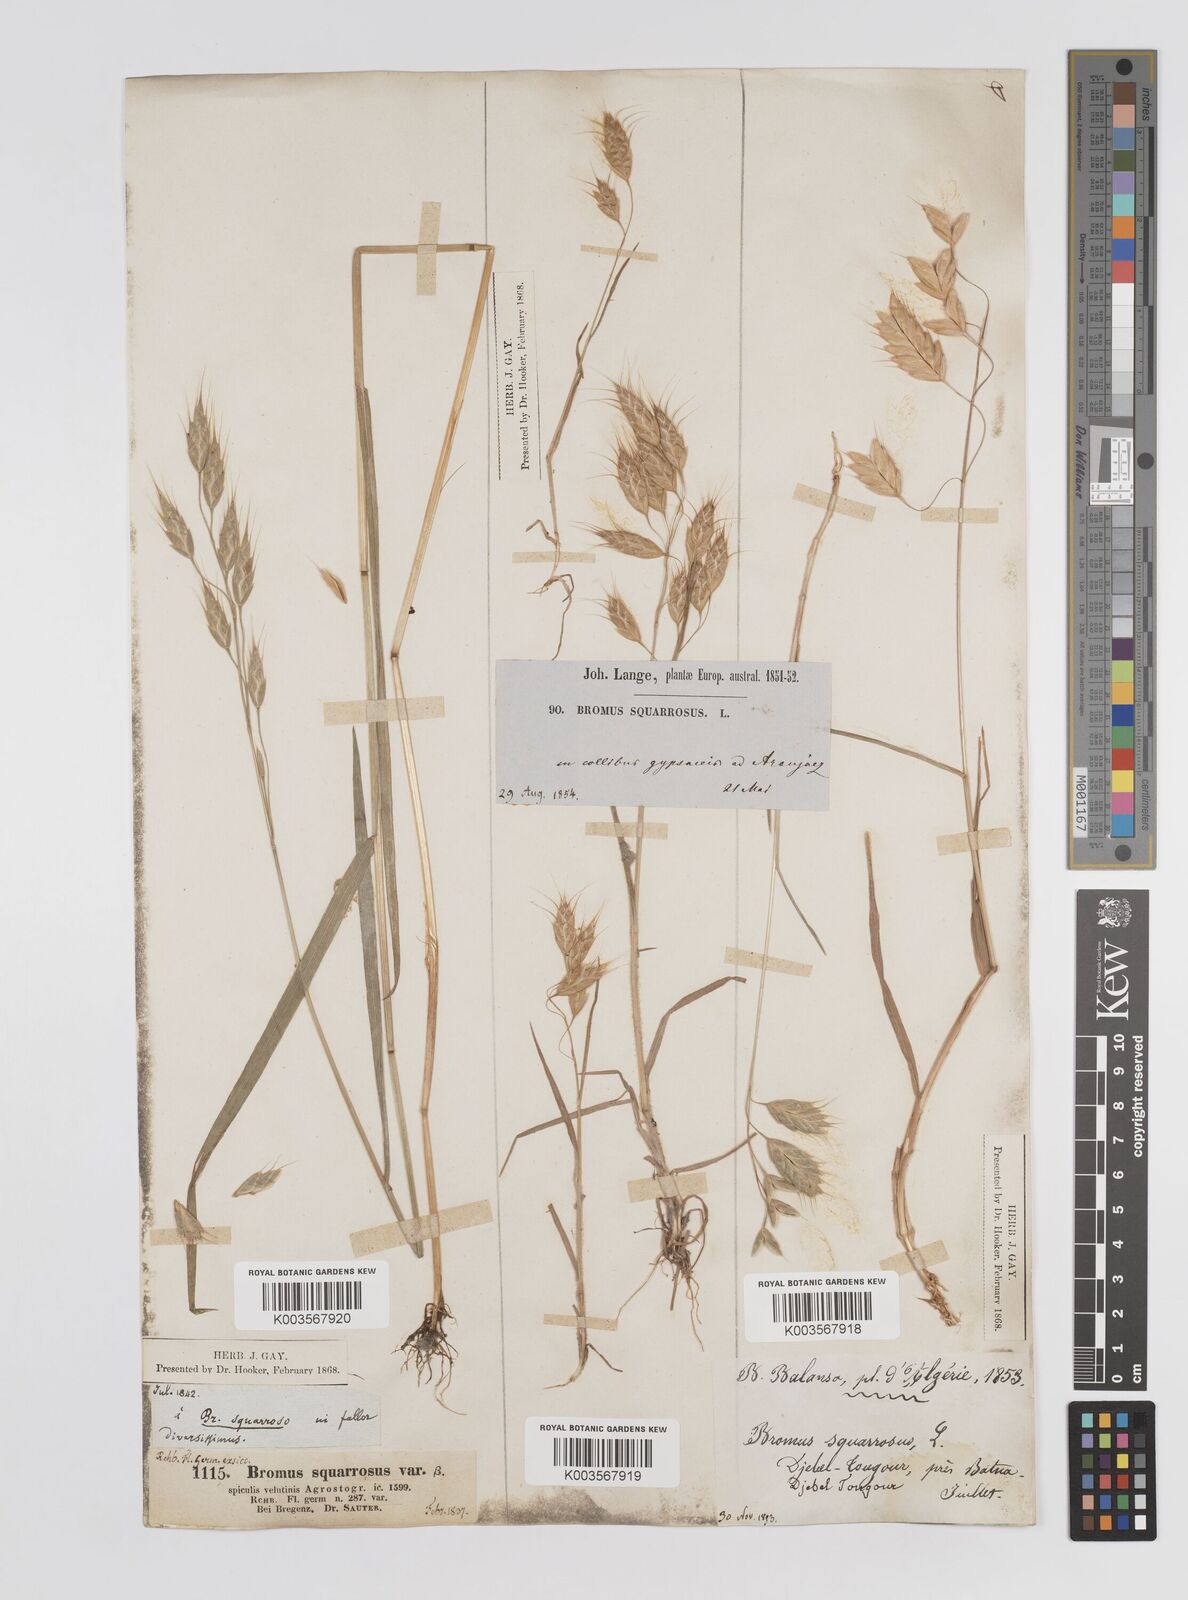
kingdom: Plantae
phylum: Tracheophyta
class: Liliopsida
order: Poales
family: Poaceae
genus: Bromus
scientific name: Bromus squarrosus
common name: Corn brome
